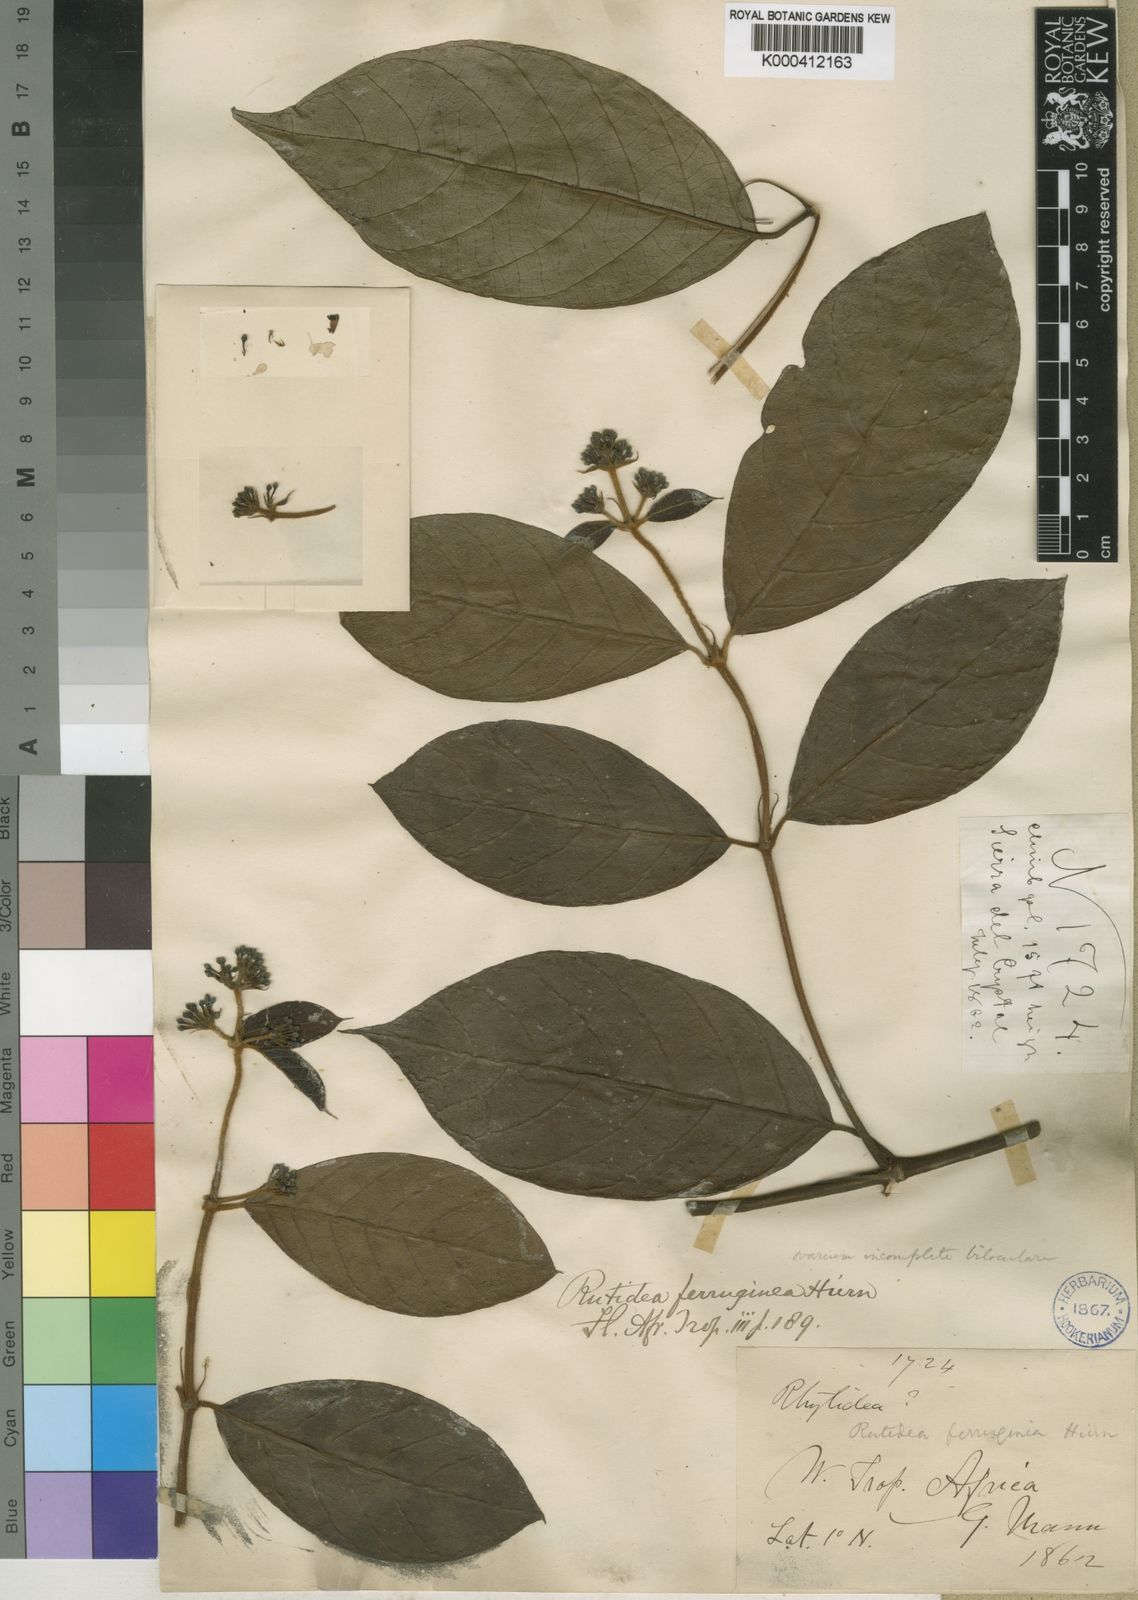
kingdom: Plantae
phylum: Tracheophyta
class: Magnoliopsida
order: Gentianales
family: Rubiaceae
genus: Rutidea
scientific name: Rutidea ferruginea
